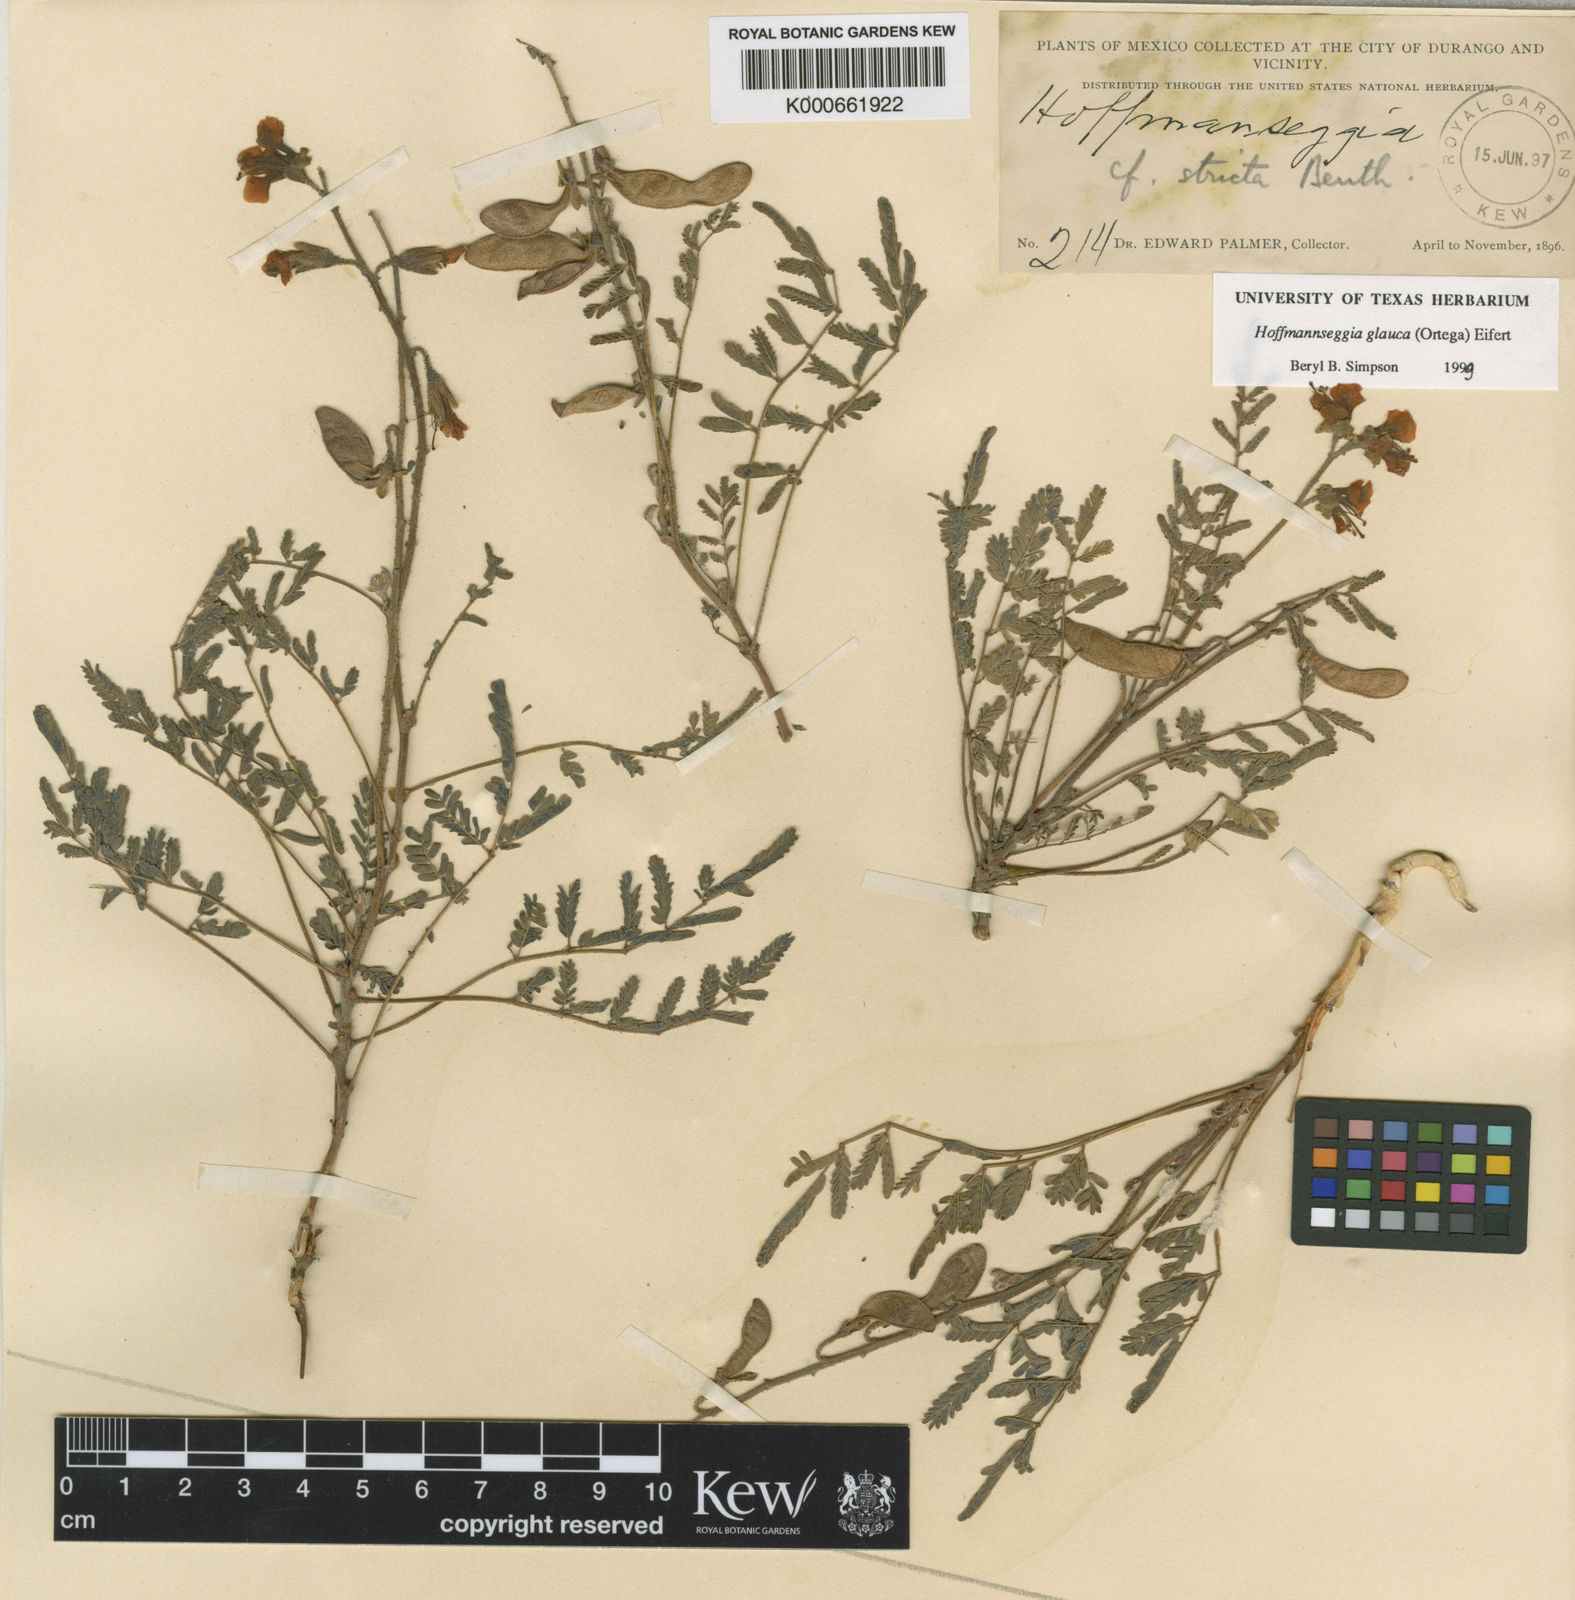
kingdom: Plantae
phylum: Tracheophyta
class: Magnoliopsida
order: Fabales
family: Fabaceae
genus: Hoffmannseggia
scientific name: Hoffmannseggia glauca
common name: Pignut
